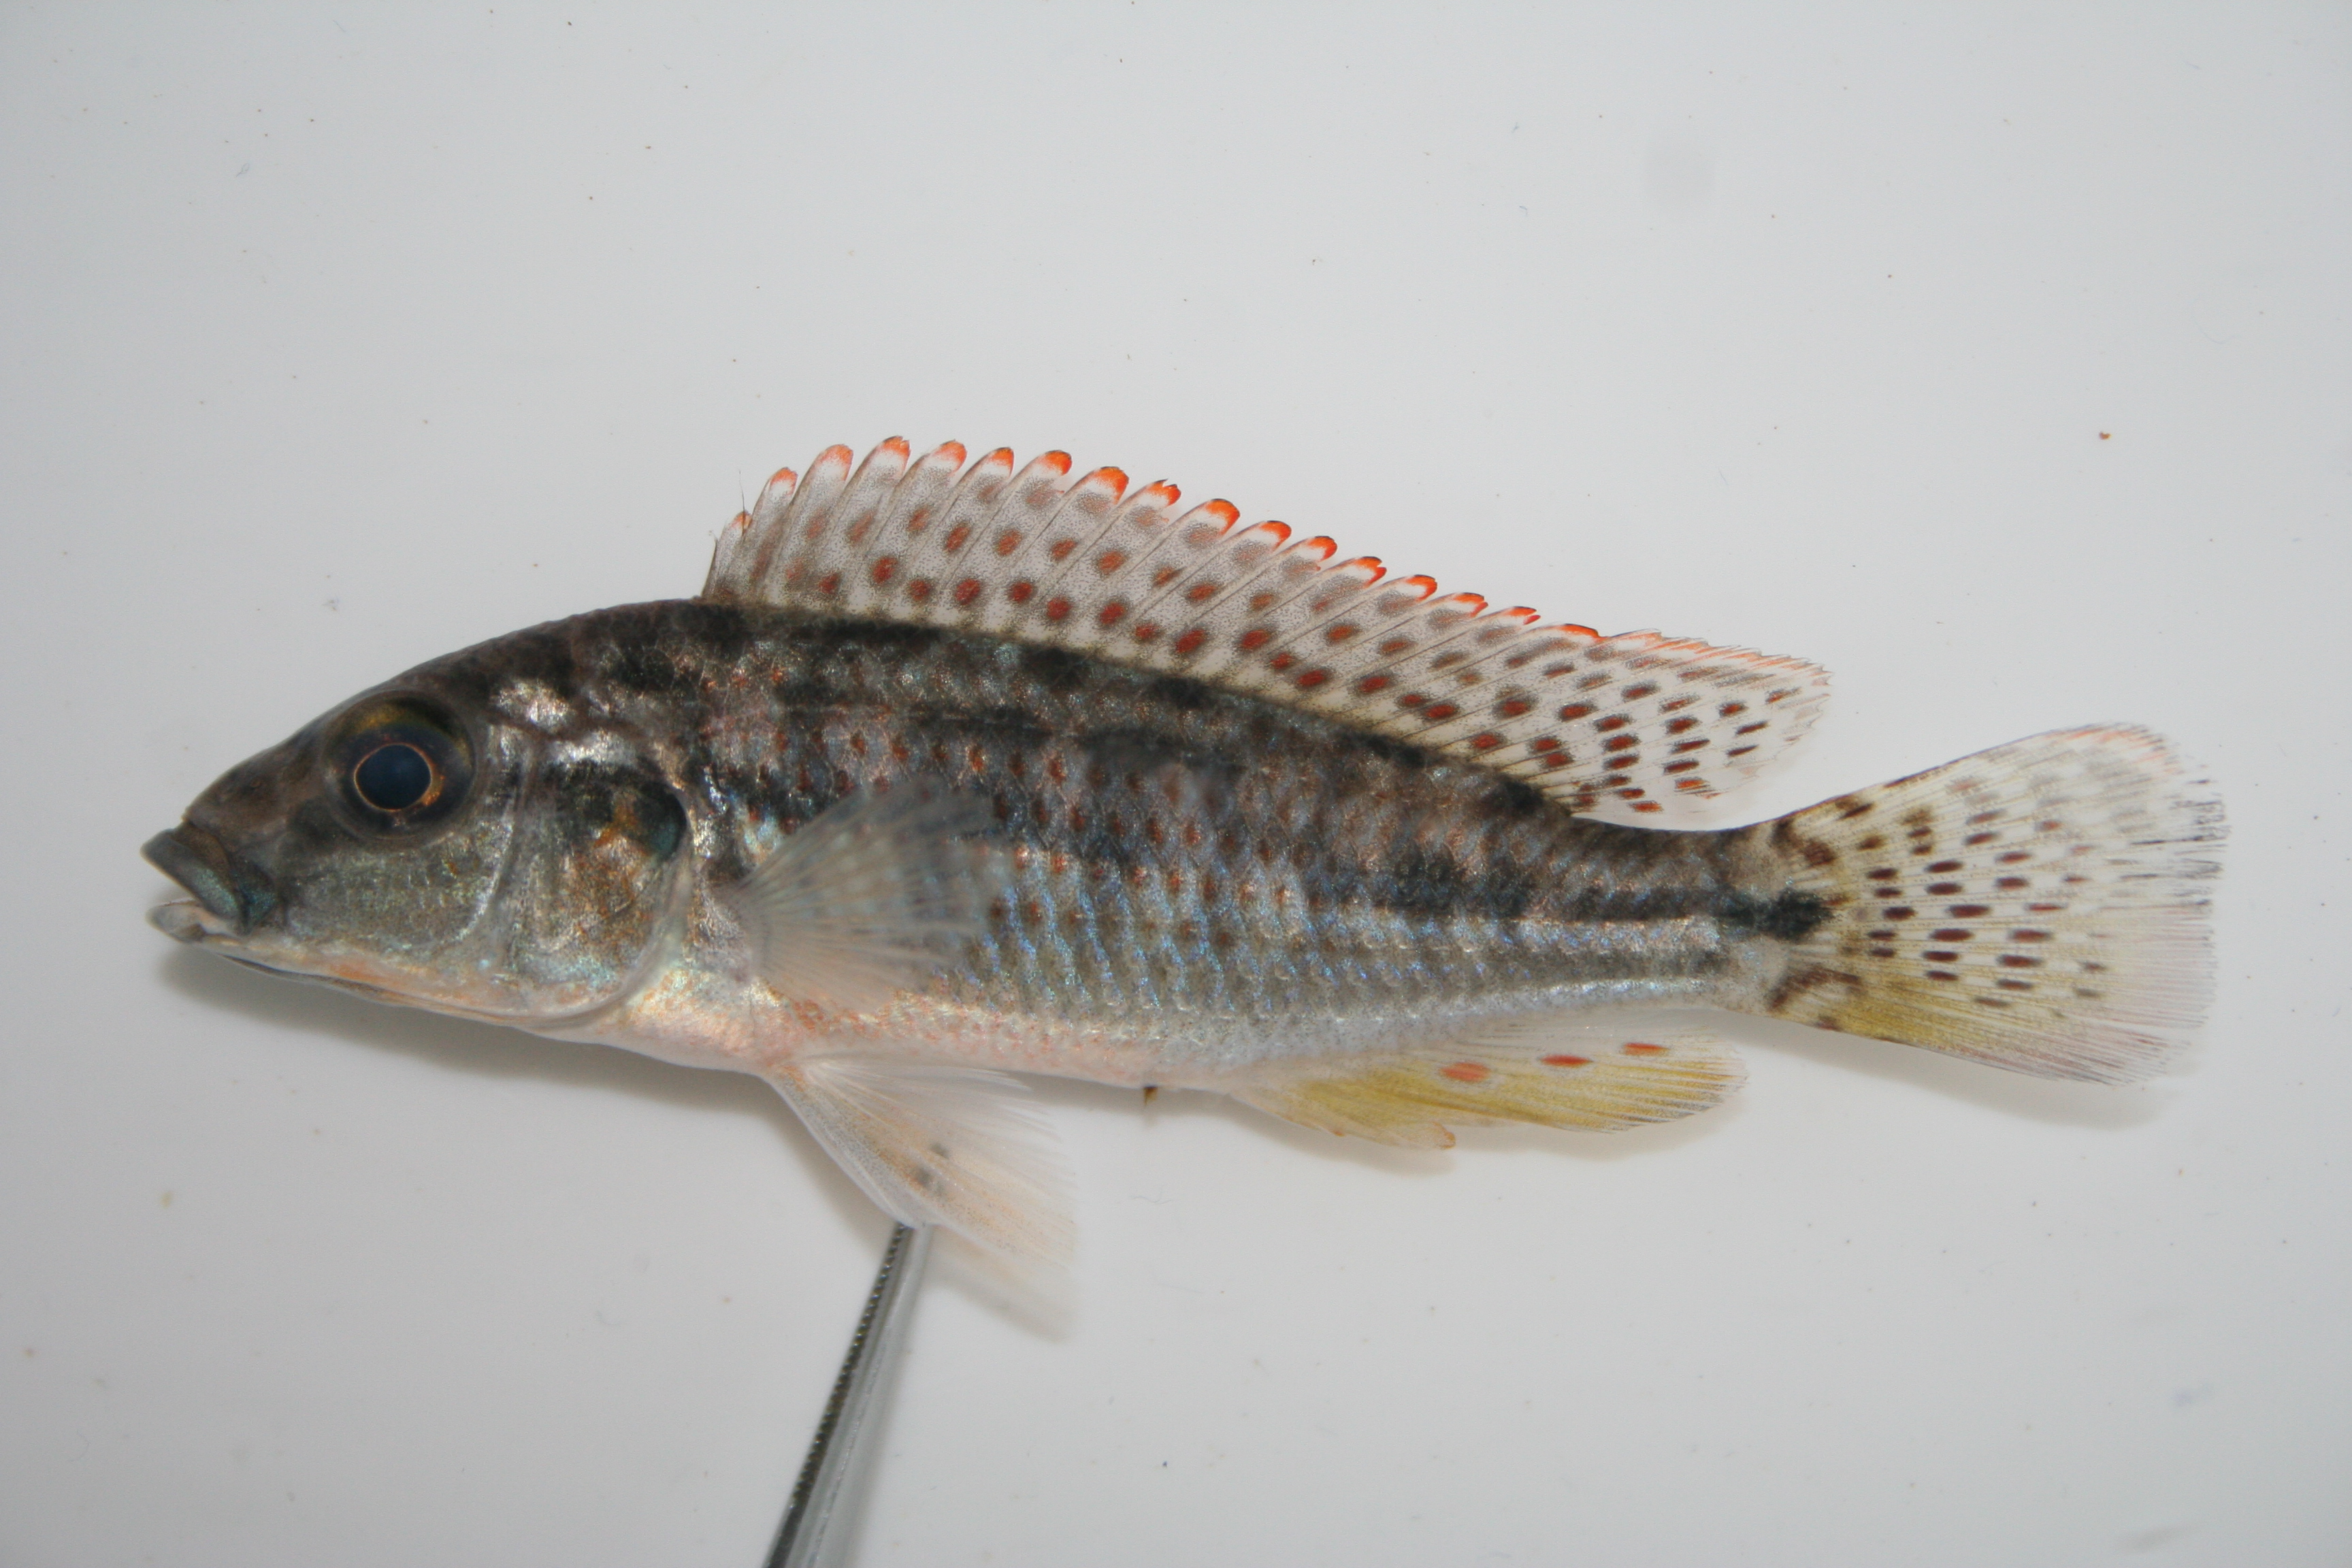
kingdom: Animalia
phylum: Chordata
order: Perciformes
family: Cichlidae
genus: Pharyngochromis
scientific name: Pharyngochromis
